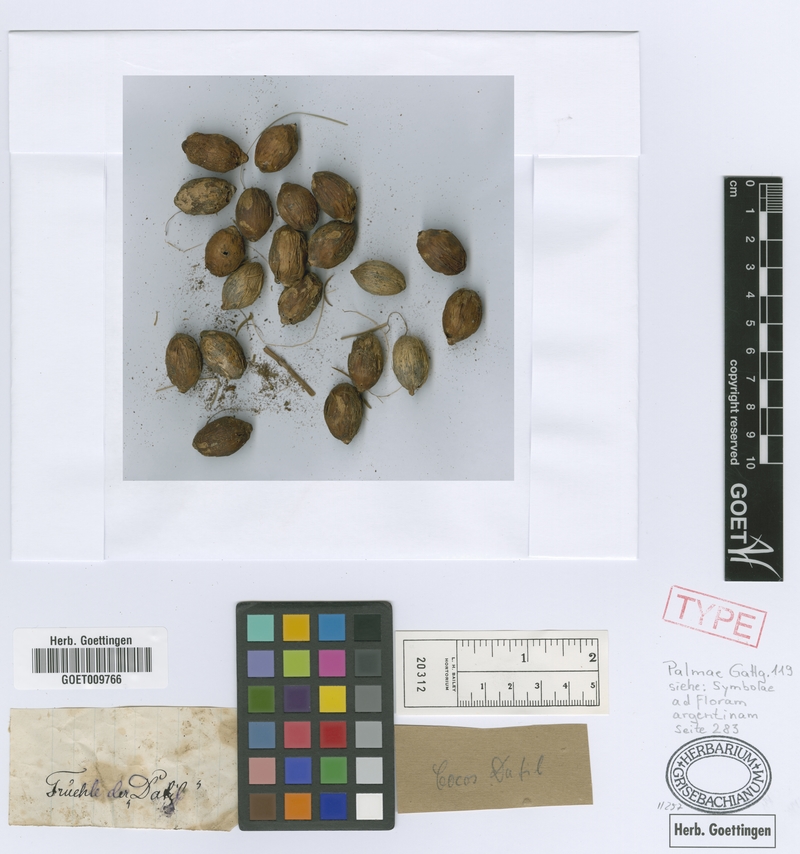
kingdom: Plantae
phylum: Tracheophyta
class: Liliopsida
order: Arecales
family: Arecaceae
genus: Syagrus
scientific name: Syagrus romanzoffiana
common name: Queen palm
